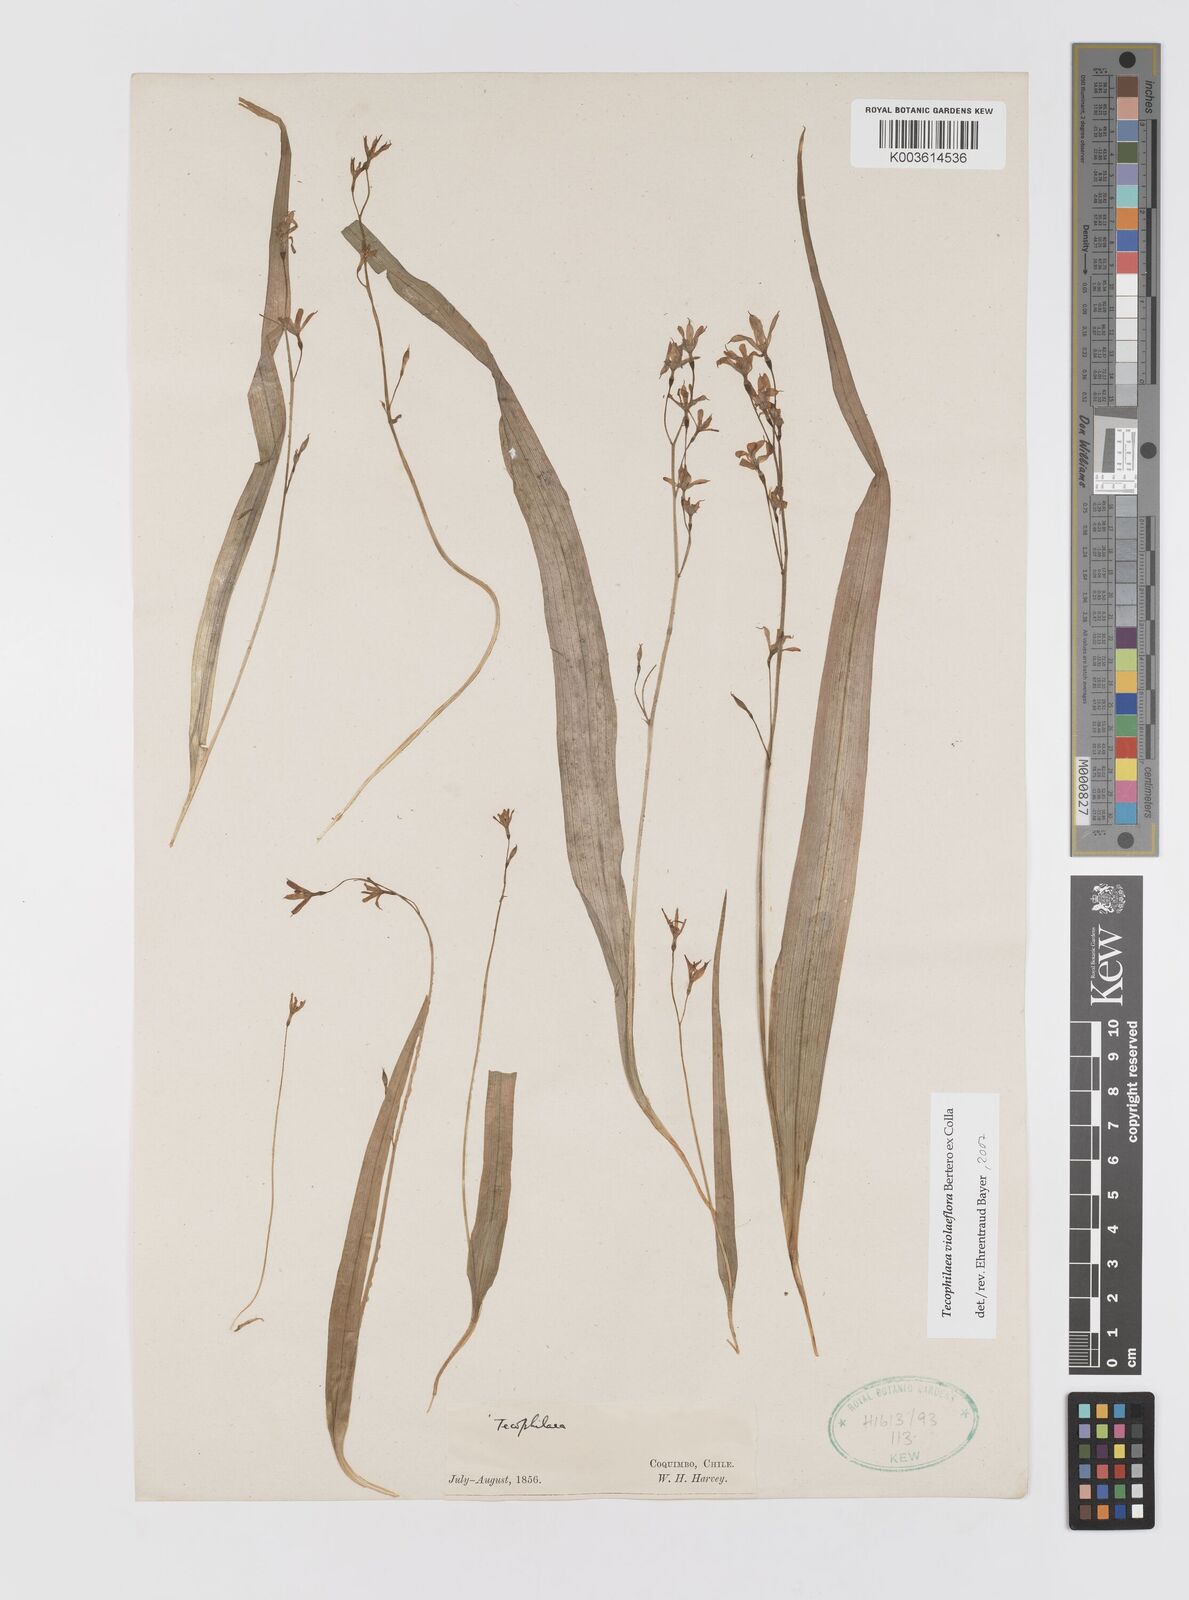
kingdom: Plantae
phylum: Tracheophyta
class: Liliopsida
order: Asparagales
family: Tecophilaeaceae
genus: Tecophilaea
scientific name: Tecophilaea violiflora
